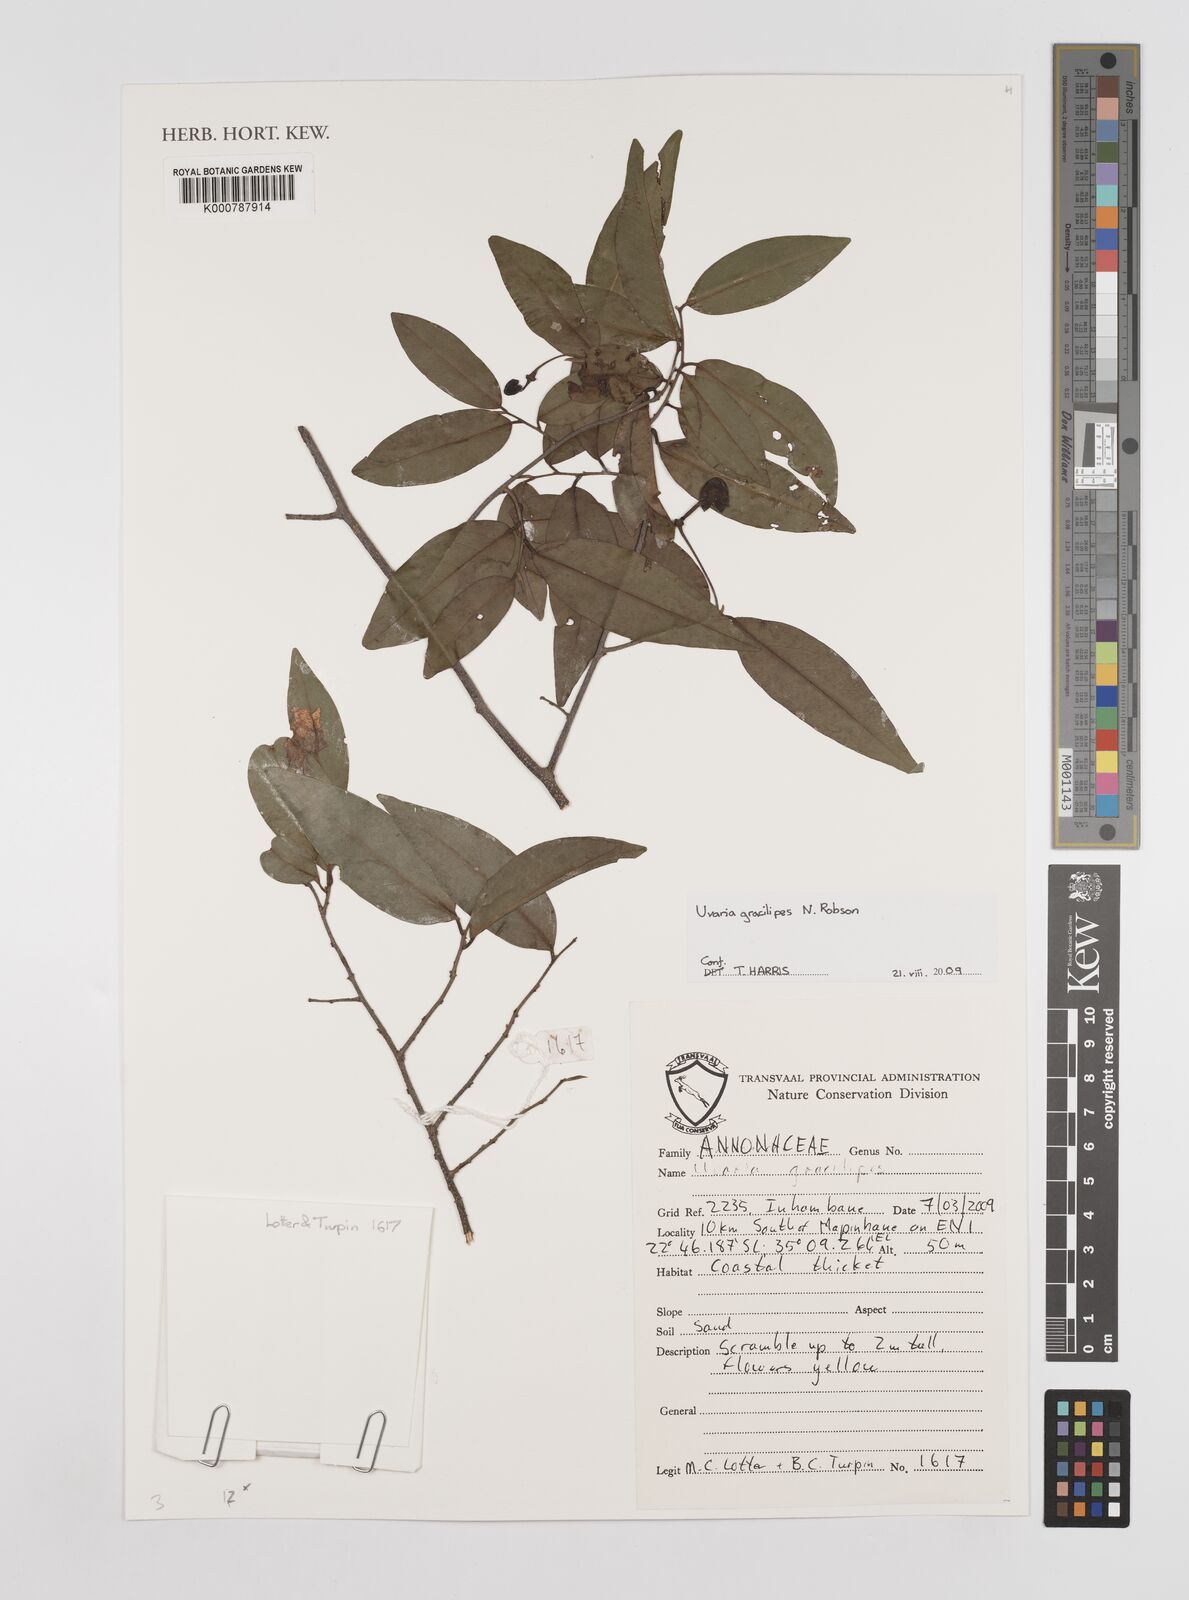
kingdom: Plantae
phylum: Tracheophyta
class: Magnoliopsida
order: Magnoliales
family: Annonaceae
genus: Uvaria
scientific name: Uvaria gracilipes
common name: Small cluster pear
